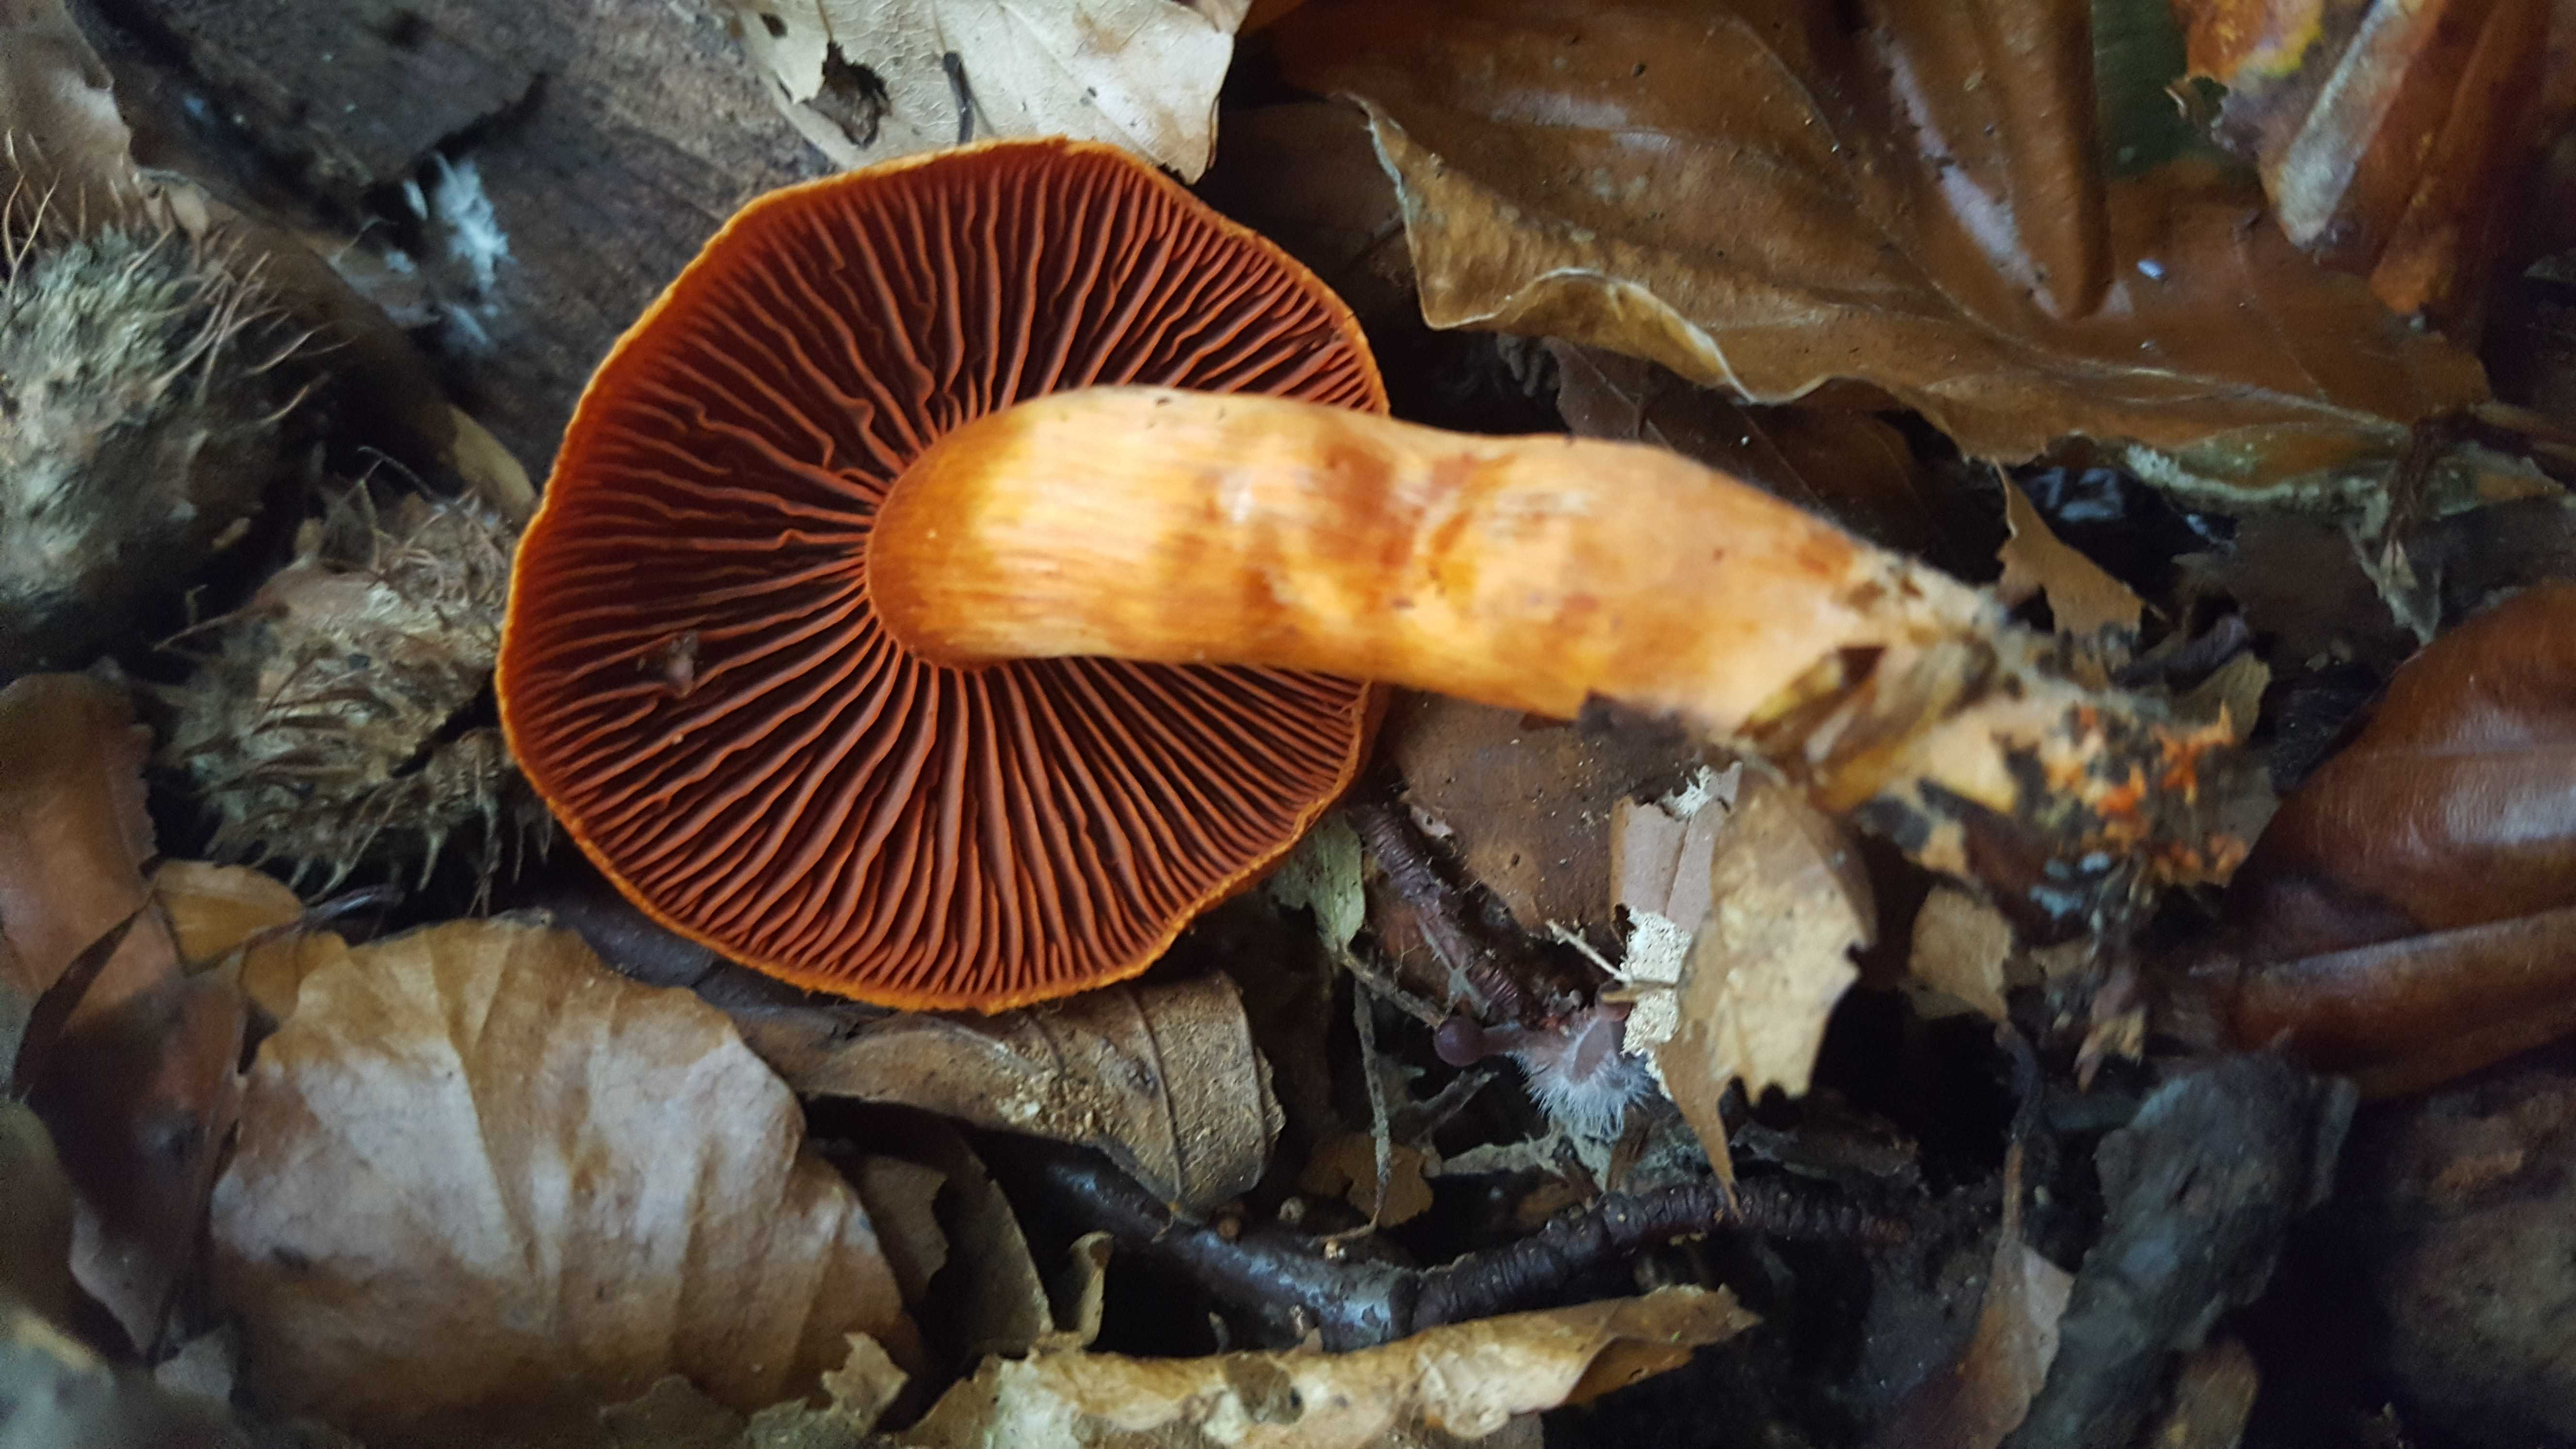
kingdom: Fungi
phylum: Basidiomycota
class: Agaricomycetes
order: Agaricales
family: Cortinariaceae
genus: Cortinarius
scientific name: Cortinarius cinnabarinus
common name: cinnober-slørhat
